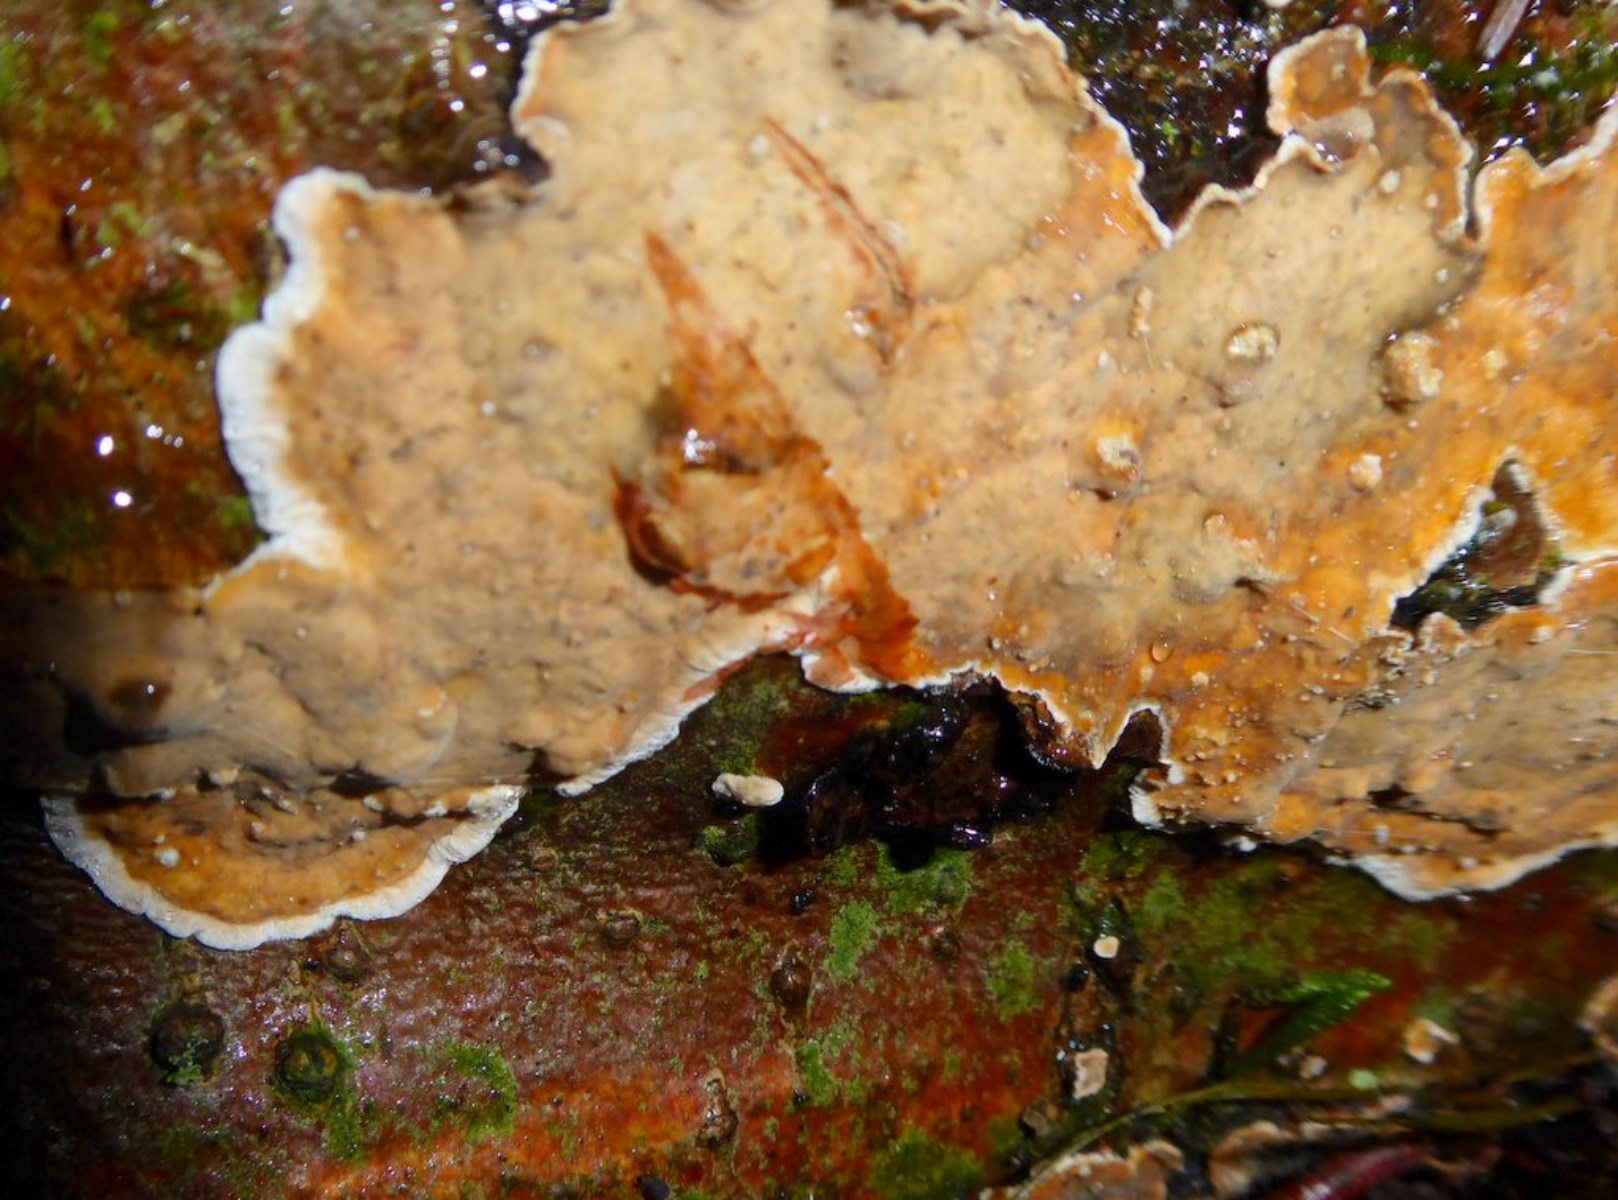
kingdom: Fungi
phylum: Basidiomycota
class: Agaricomycetes
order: Russulales
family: Stereaceae
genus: Stereum
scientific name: Stereum rugosum
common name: rynket lædersvamp
